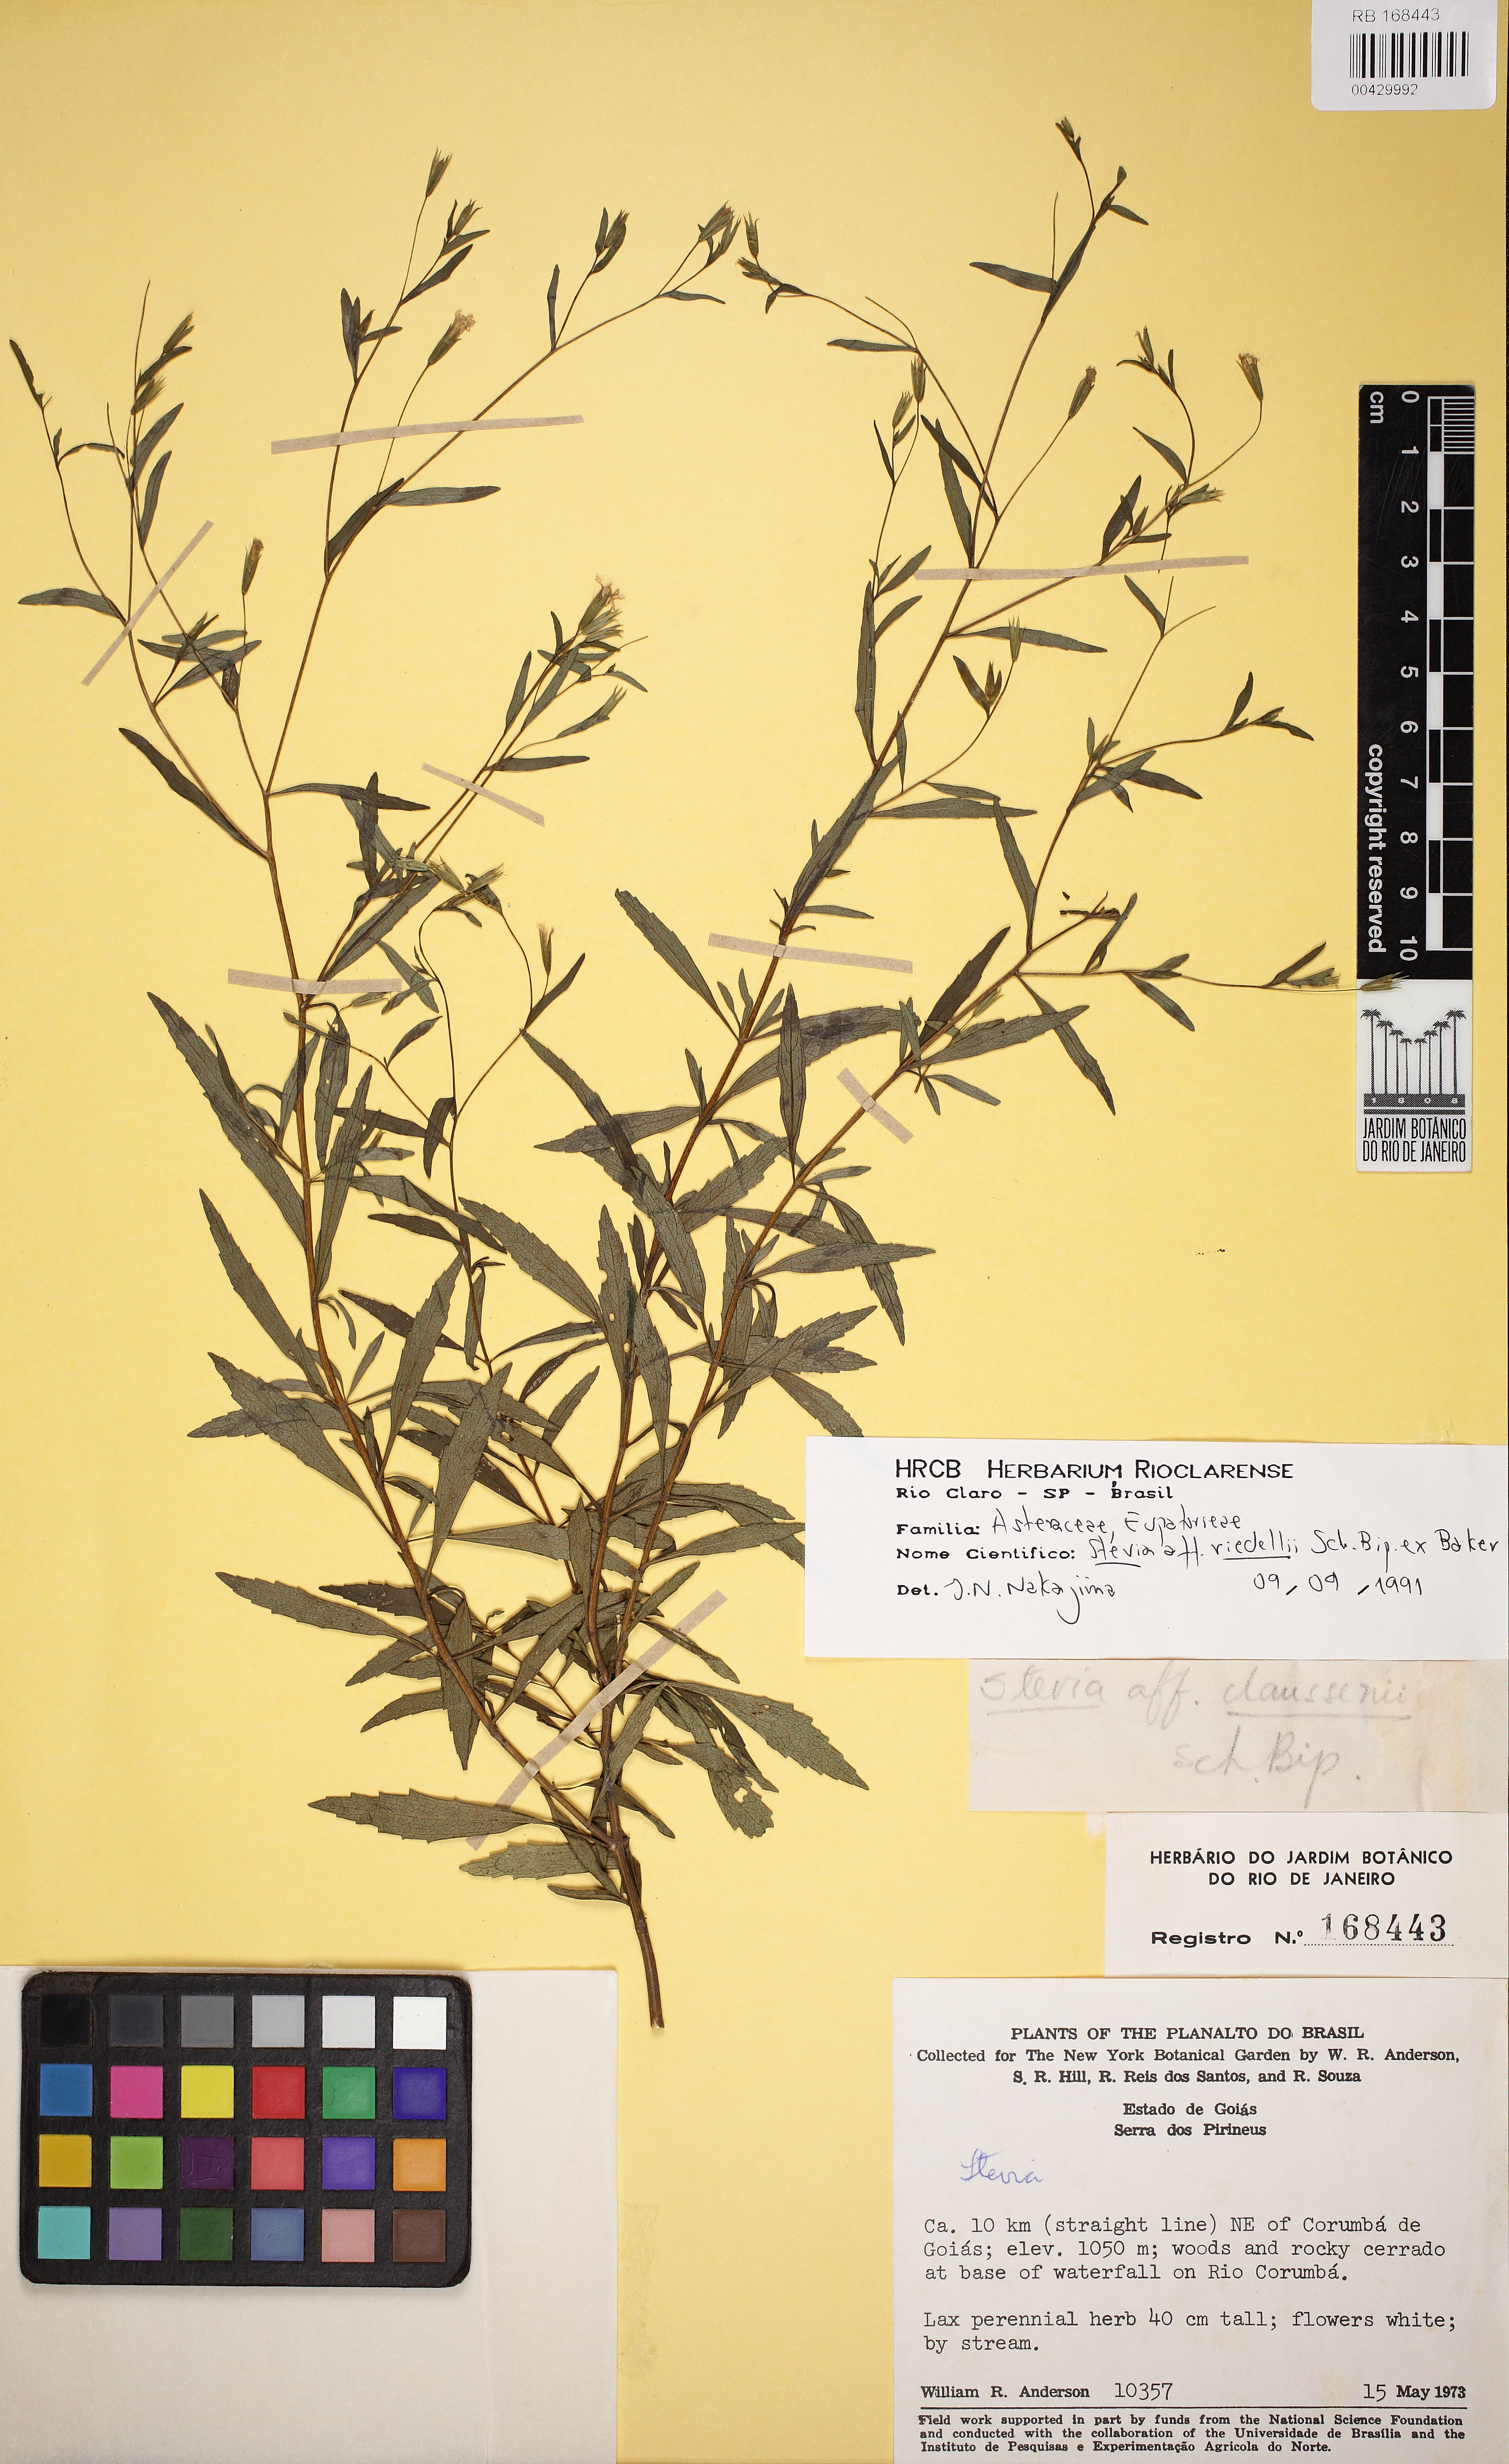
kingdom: Plantae
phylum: Tracheophyta
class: Magnoliopsida
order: Asterales
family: Asteraceae
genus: Stevia
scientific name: Stevia oligocephala
